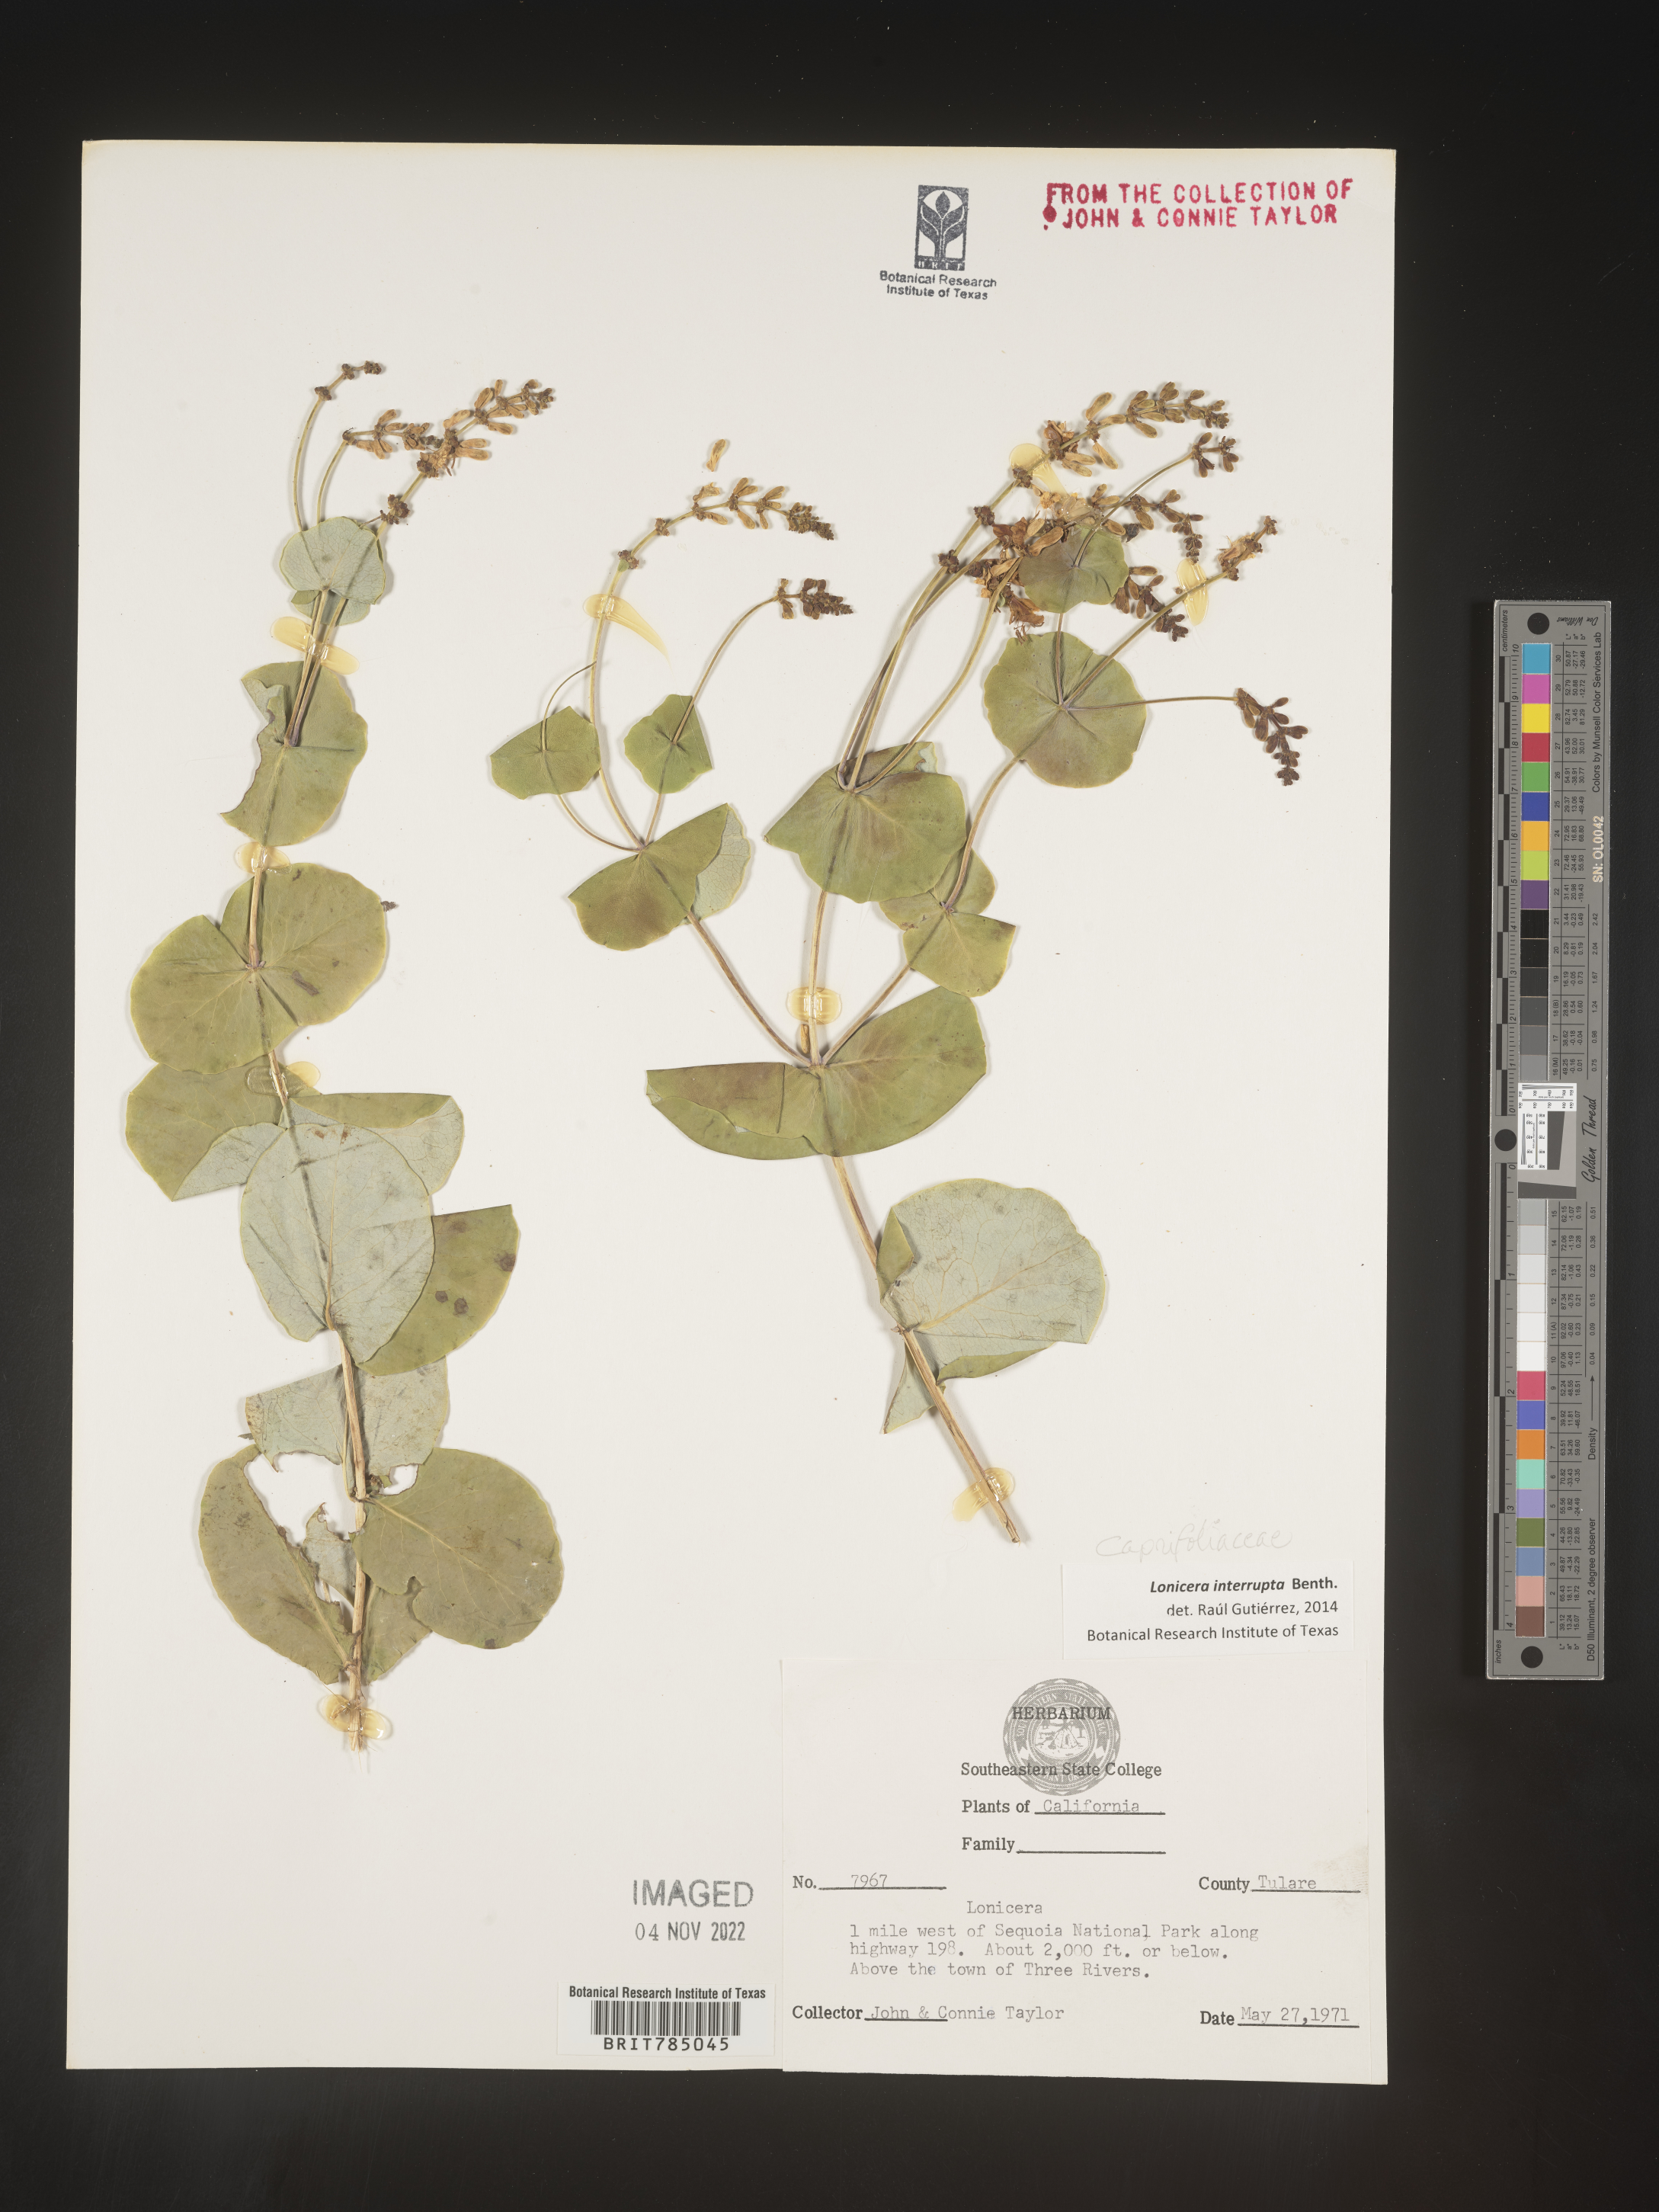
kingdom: Plantae
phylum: Tracheophyta
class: Magnoliopsida
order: Dipsacales
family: Caprifoliaceae
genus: Lonicera
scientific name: Lonicera
